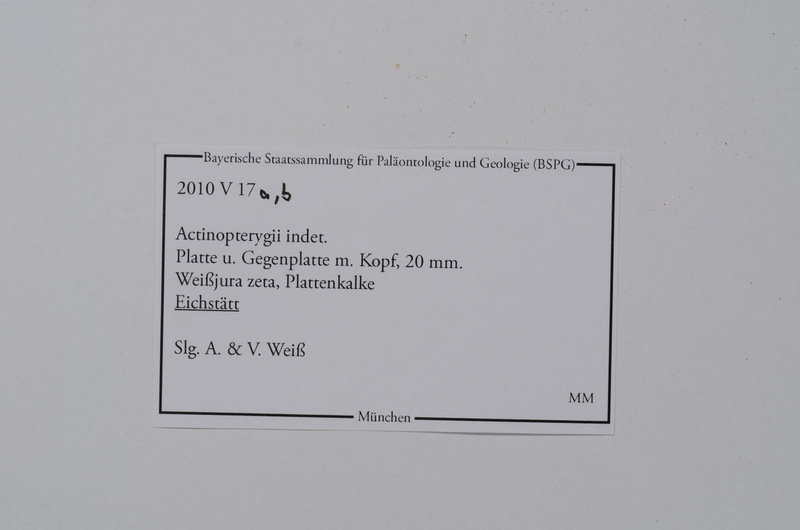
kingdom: Animalia
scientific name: Animalia
